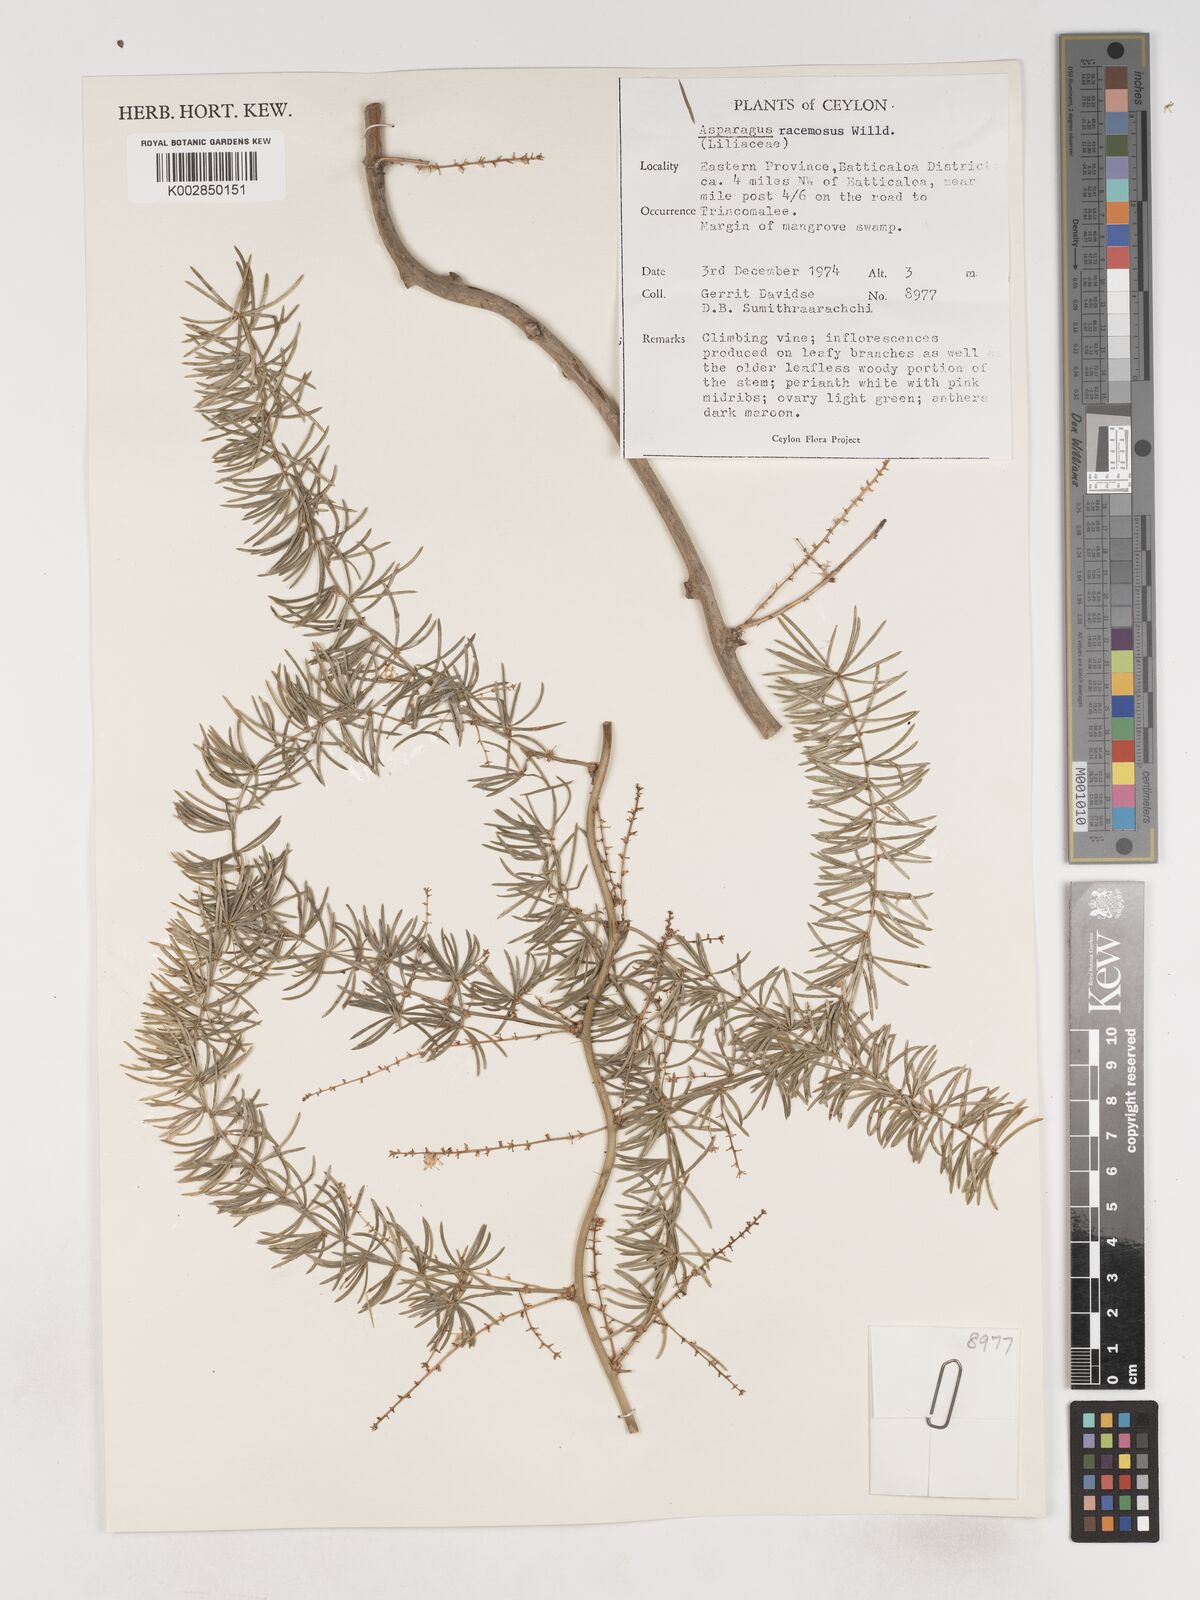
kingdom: Plantae
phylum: Tracheophyta
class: Liliopsida
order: Asparagales
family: Asparagaceae
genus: Asparagus
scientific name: Asparagus racemosus
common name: Asparagus-fern
